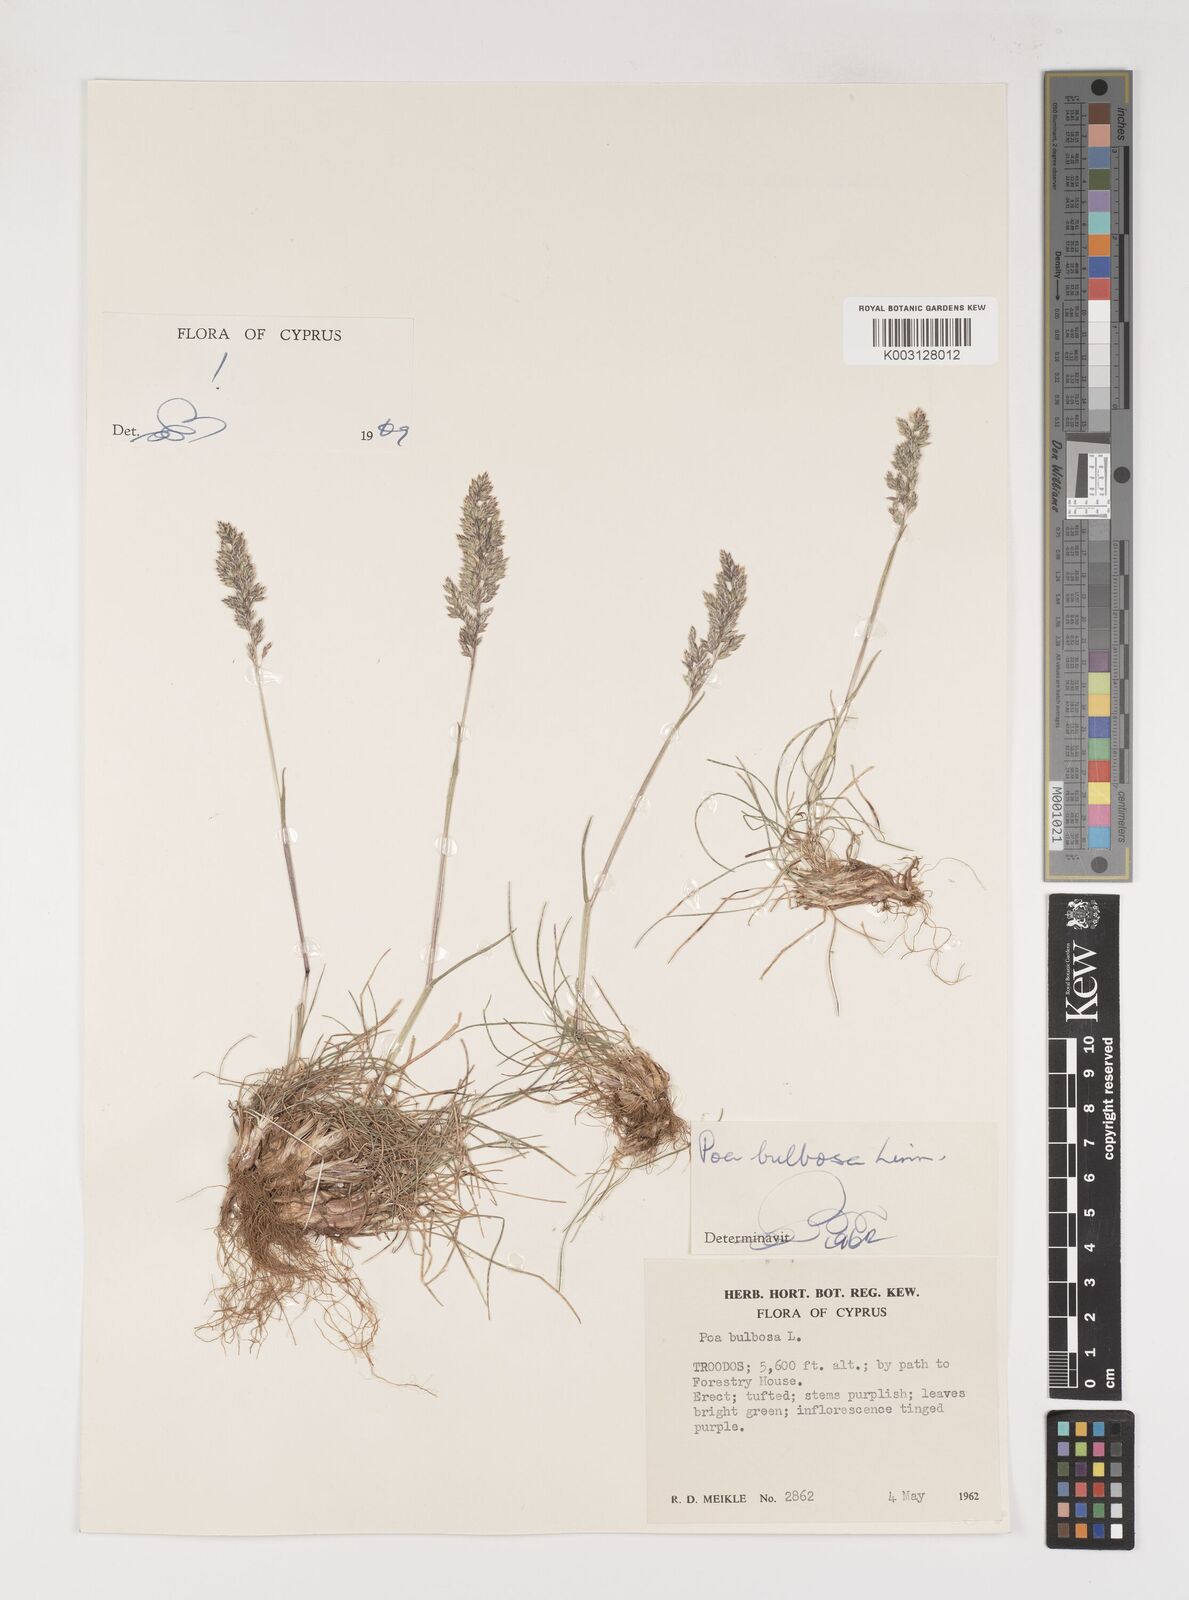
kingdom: Plantae
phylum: Tracheophyta
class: Liliopsida
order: Poales
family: Poaceae
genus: Poa
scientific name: Poa bulbosa
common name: Bulbous bluegrass
